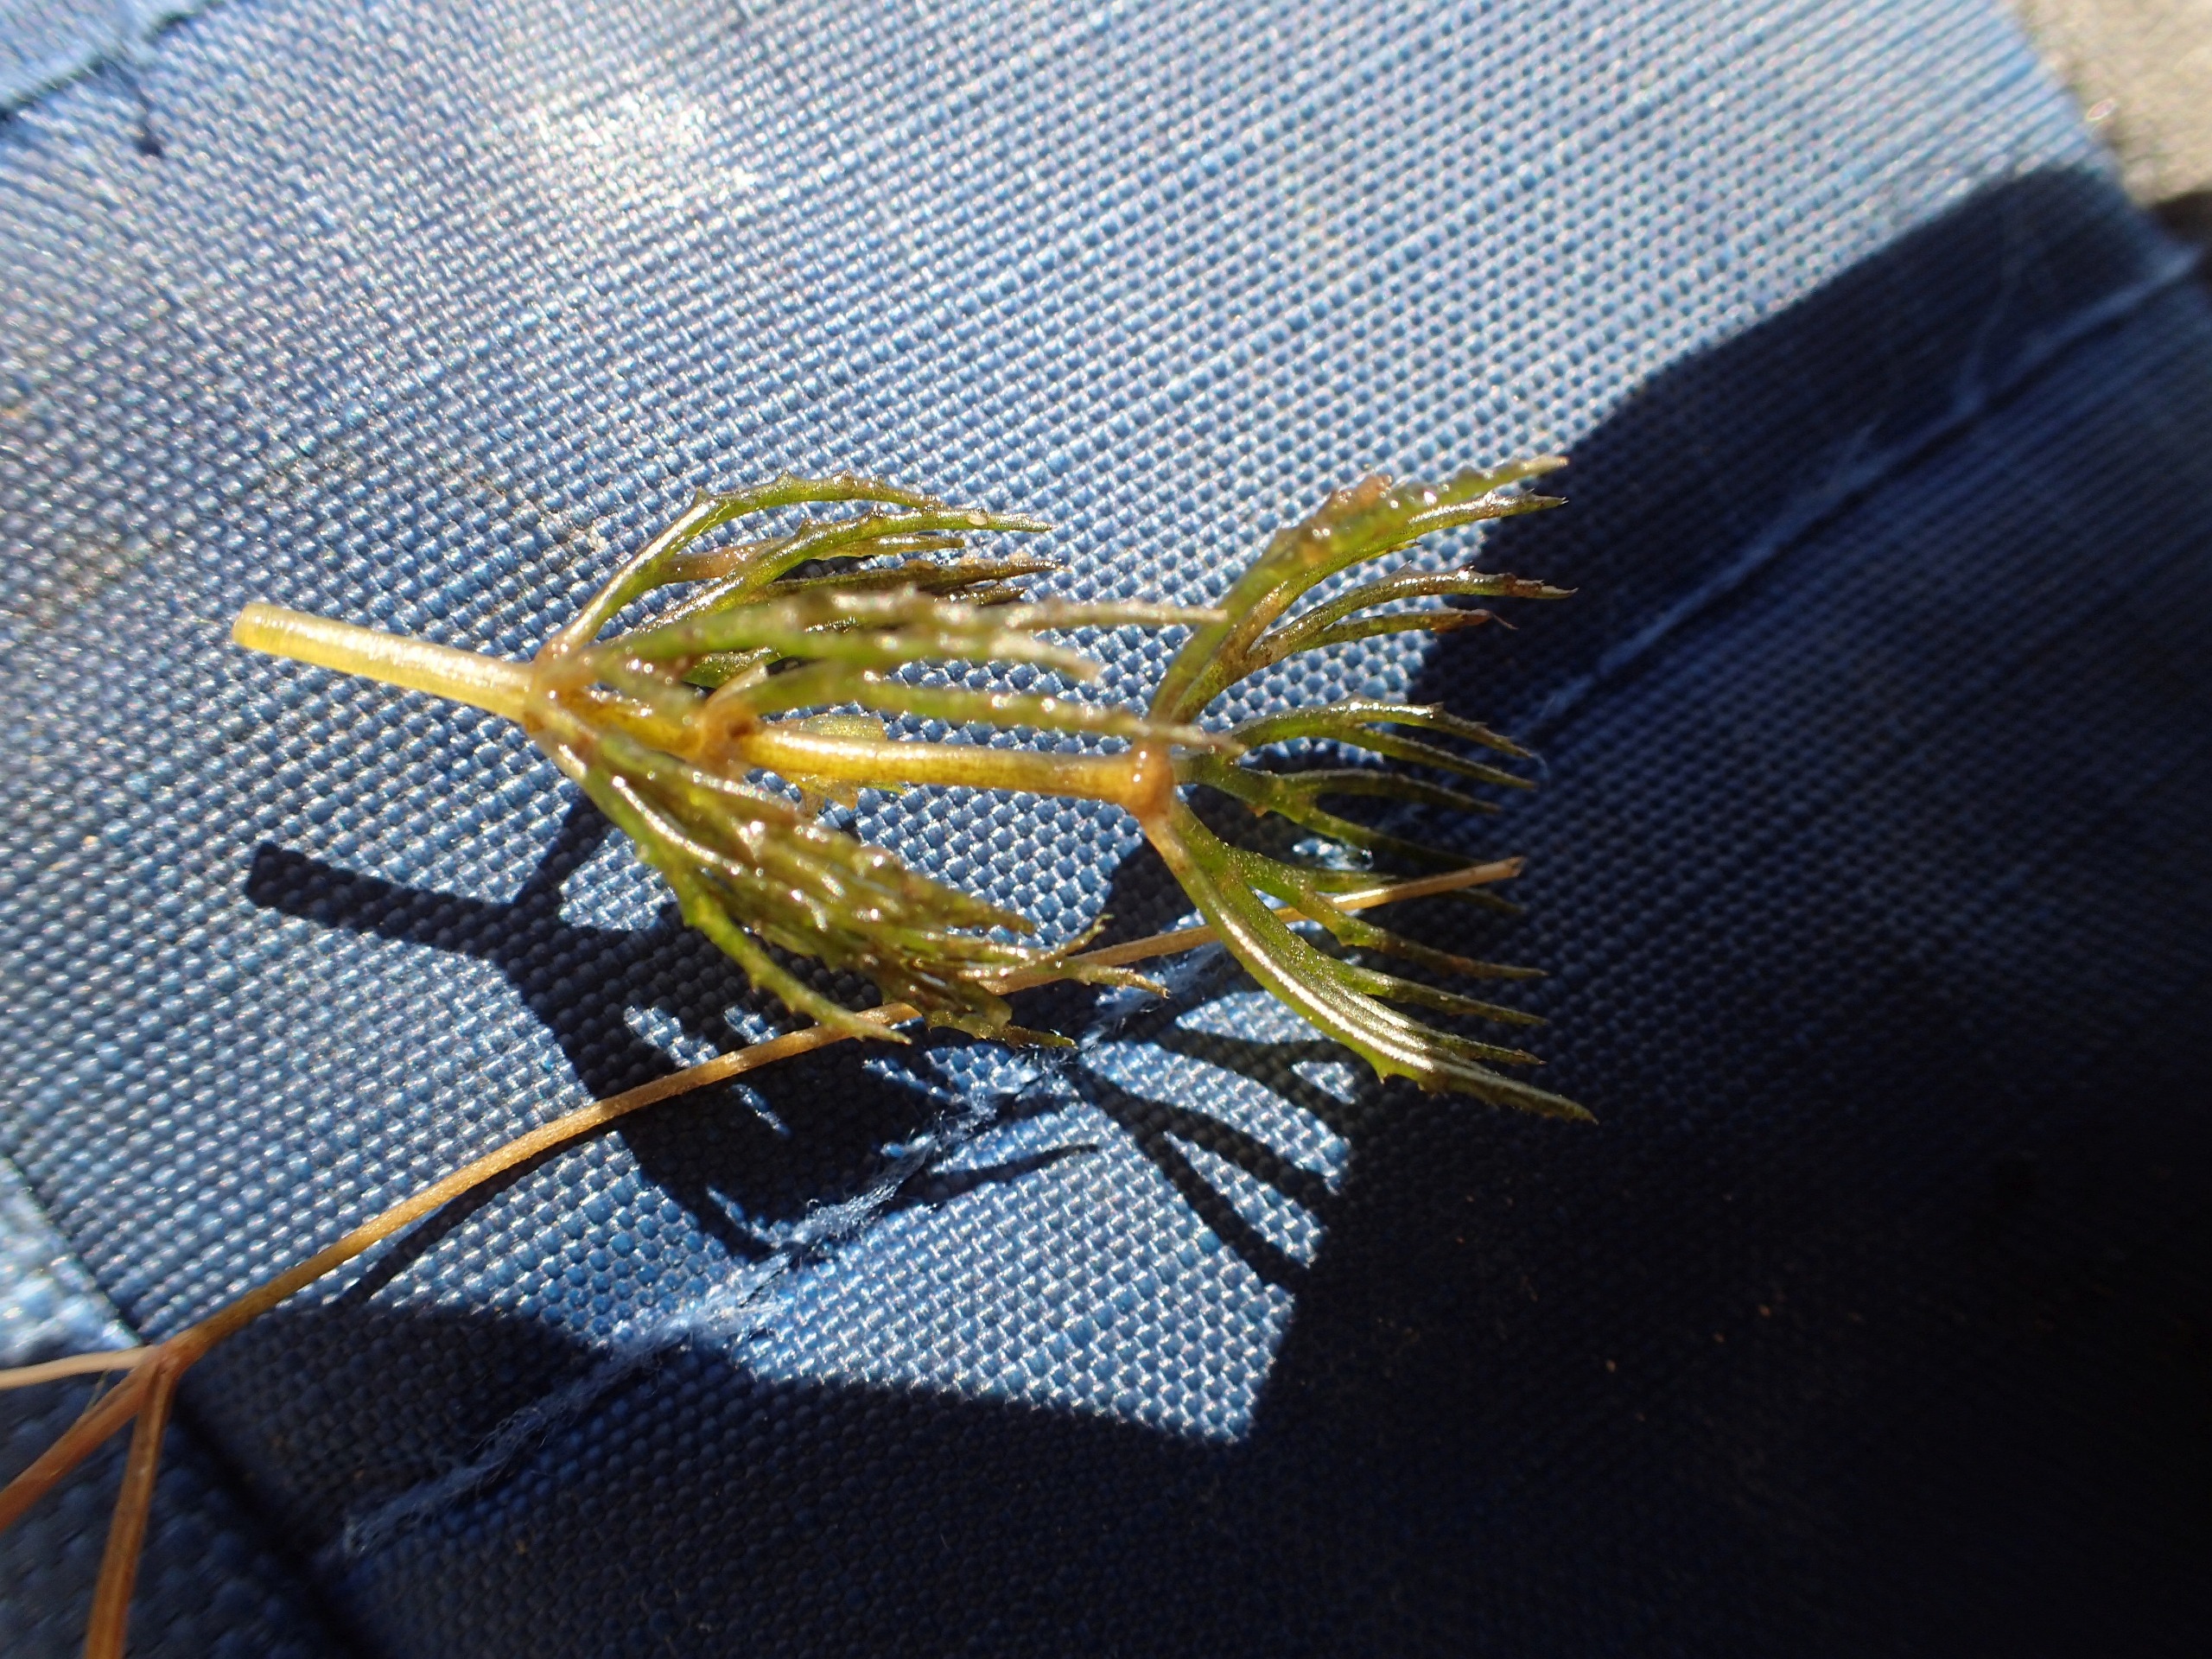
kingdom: Plantae
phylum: Tracheophyta
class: Magnoliopsida
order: Ceratophyllales
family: Ceratophyllaceae
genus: Ceratophyllum
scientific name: Ceratophyllum demersum
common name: Tornfrøet hornblad
